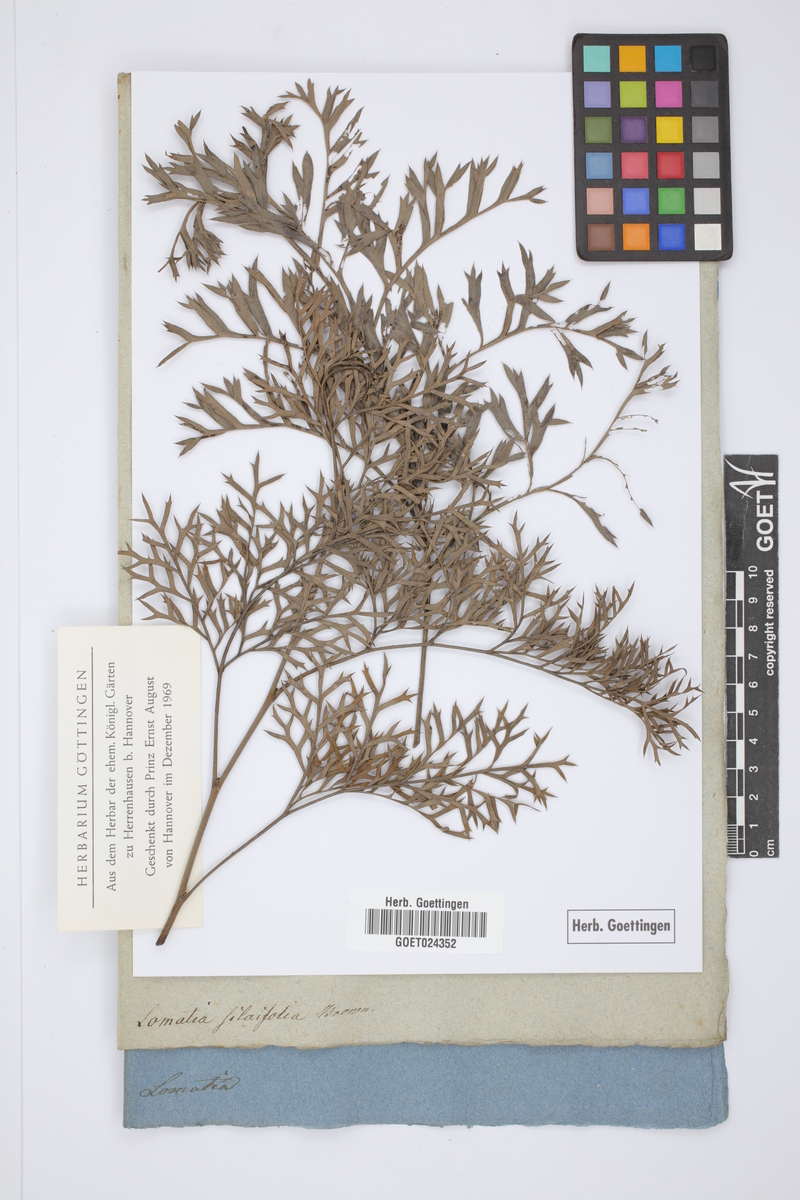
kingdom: Plantae
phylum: Tracheophyta
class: Magnoliopsida
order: Proteales
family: Proteaceae
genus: Lomatia
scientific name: Lomatia silaifolia
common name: Crinklebush
